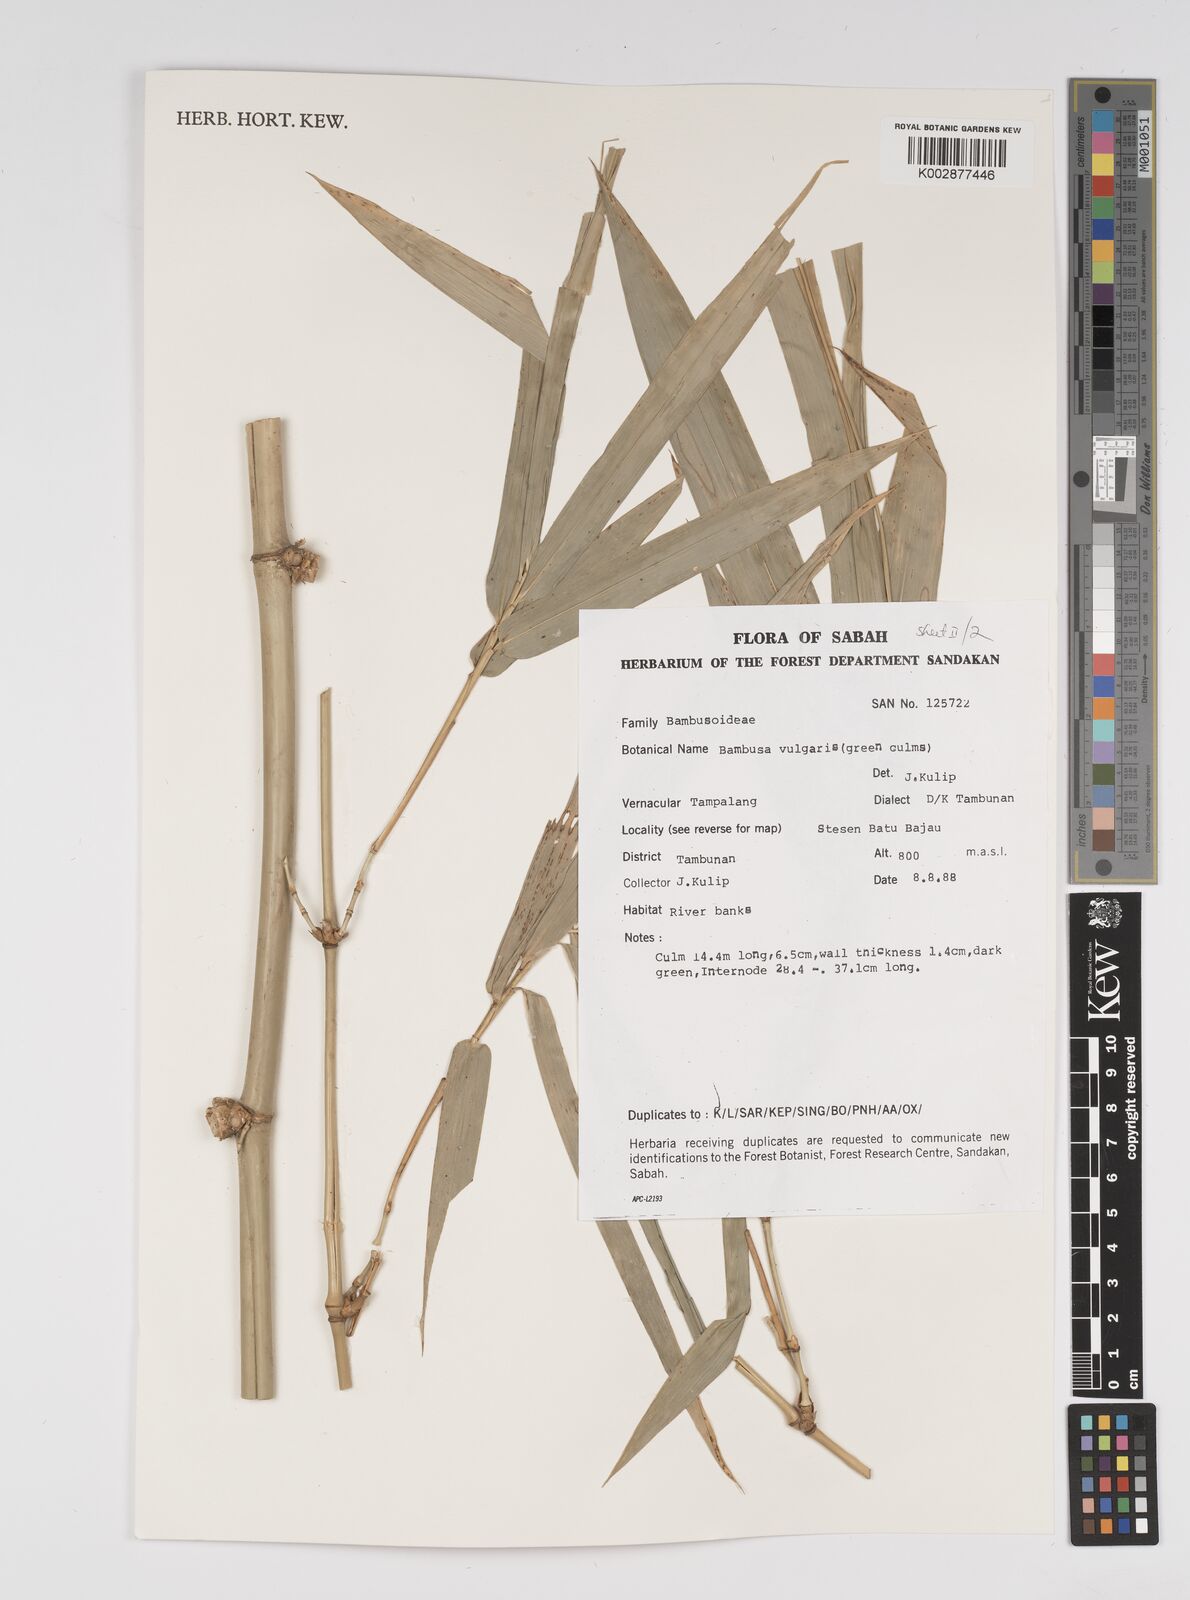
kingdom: Plantae
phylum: Tracheophyta
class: Liliopsida
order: Poales
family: Poaceae
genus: Bambusa
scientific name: Bambusa vulgaris
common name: Common bamboo
